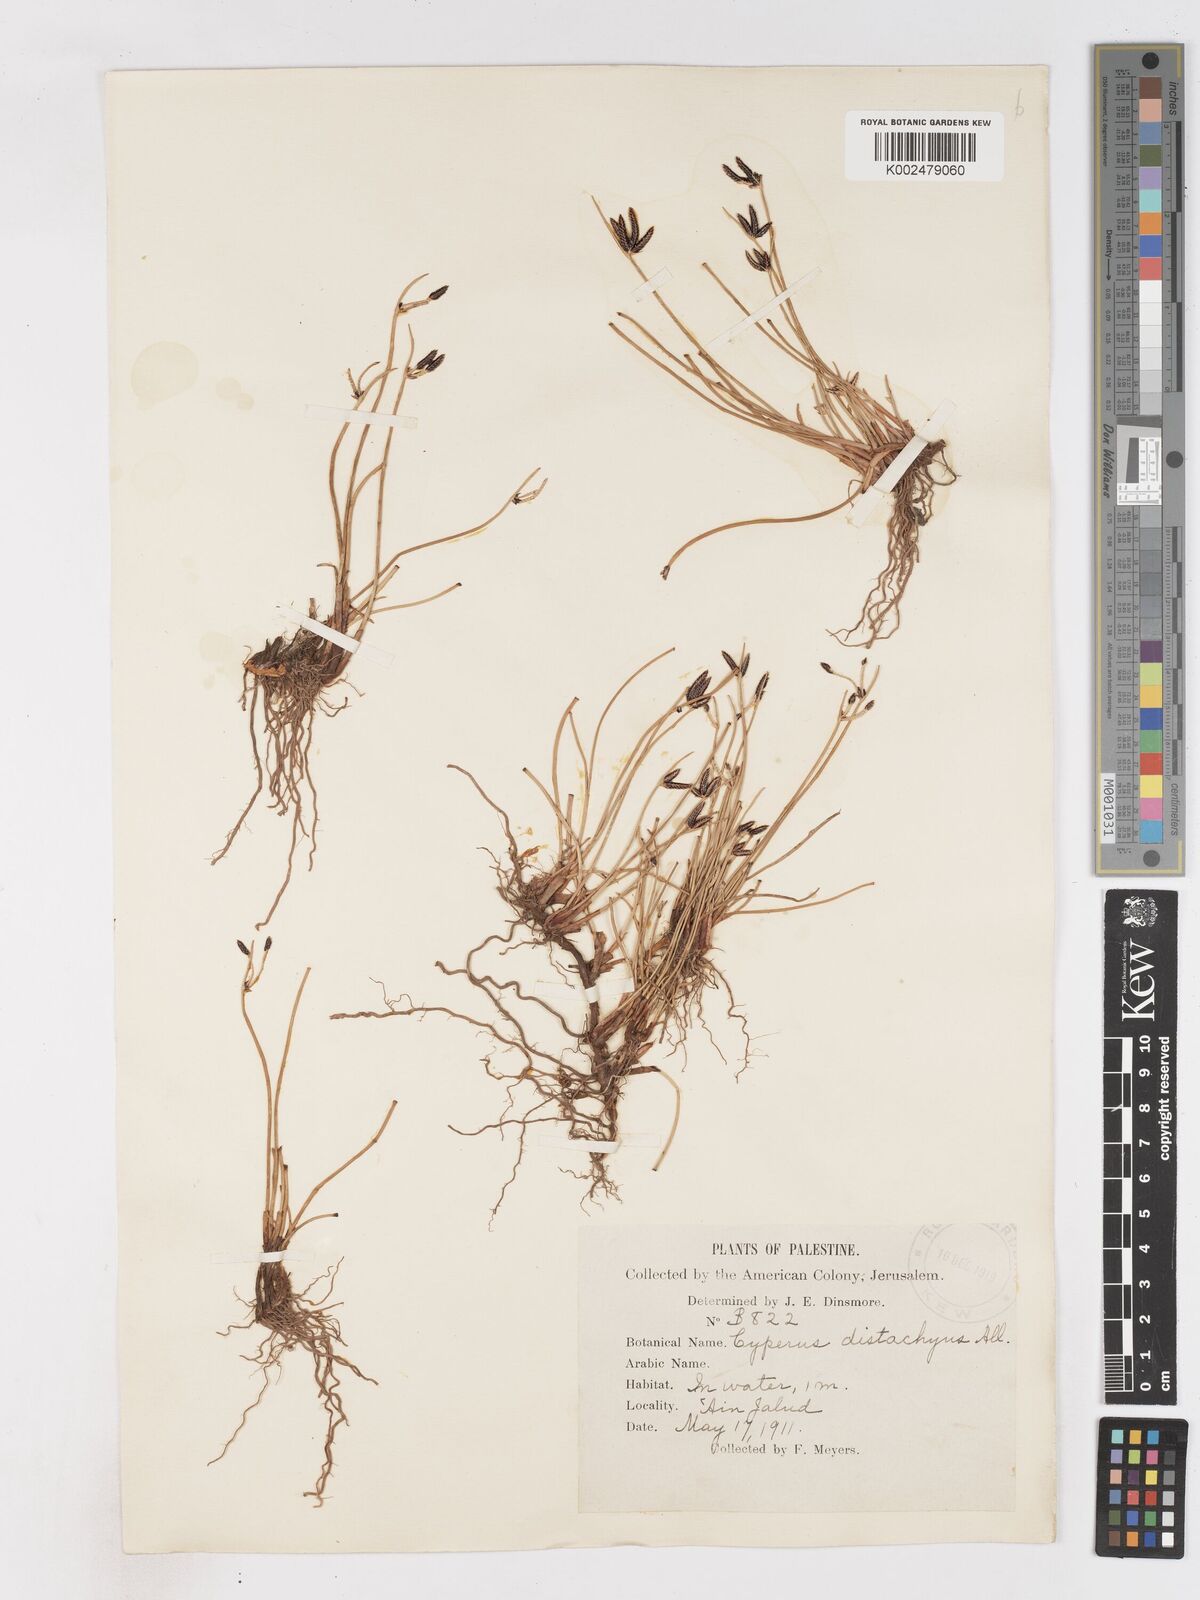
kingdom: Plantae
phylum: Tracheophyta
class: Liliopsida
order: Poales
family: Cyperaceae
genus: Cyperus
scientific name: Cyperus laevigatus
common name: Smooth flat sedge
